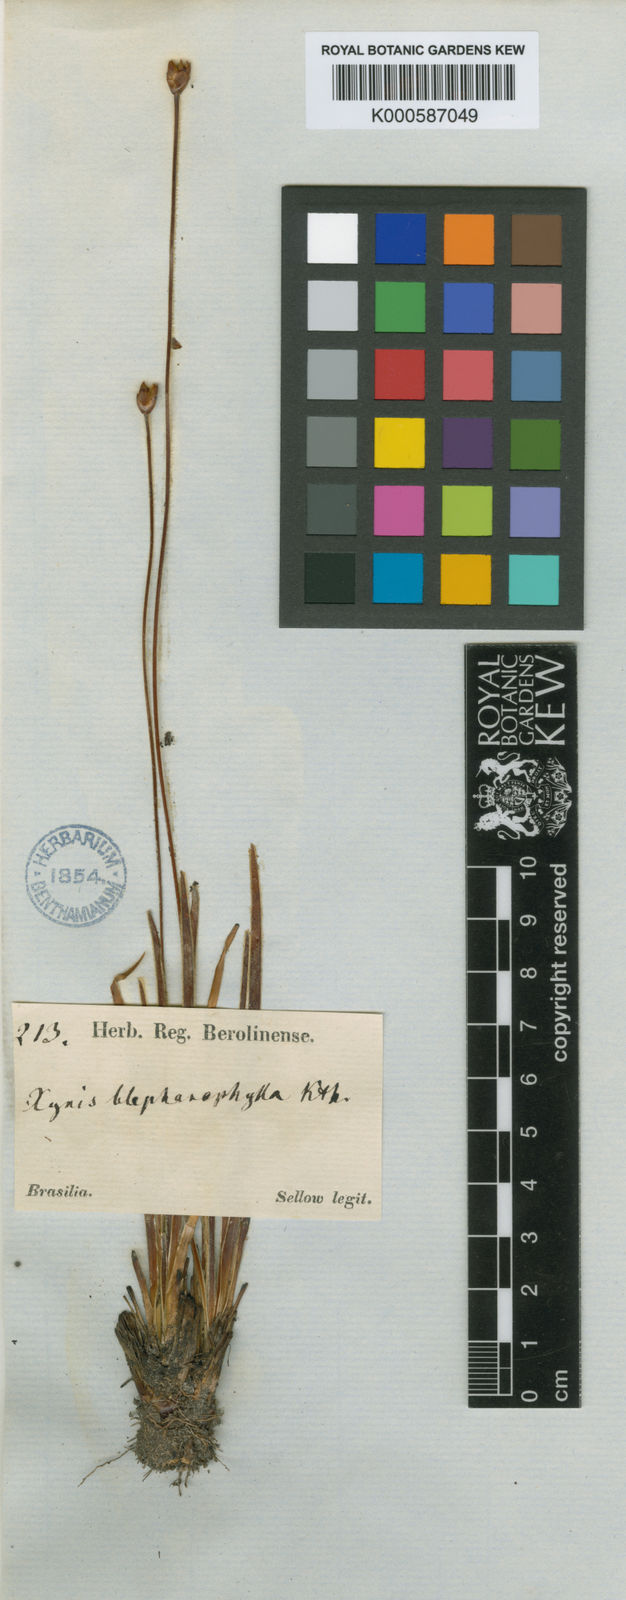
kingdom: Plantae
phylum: Tracheophyta
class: Liliopsida
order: Poales
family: Xyridaceae
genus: Xyris
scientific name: Xyris pterygoblephara
